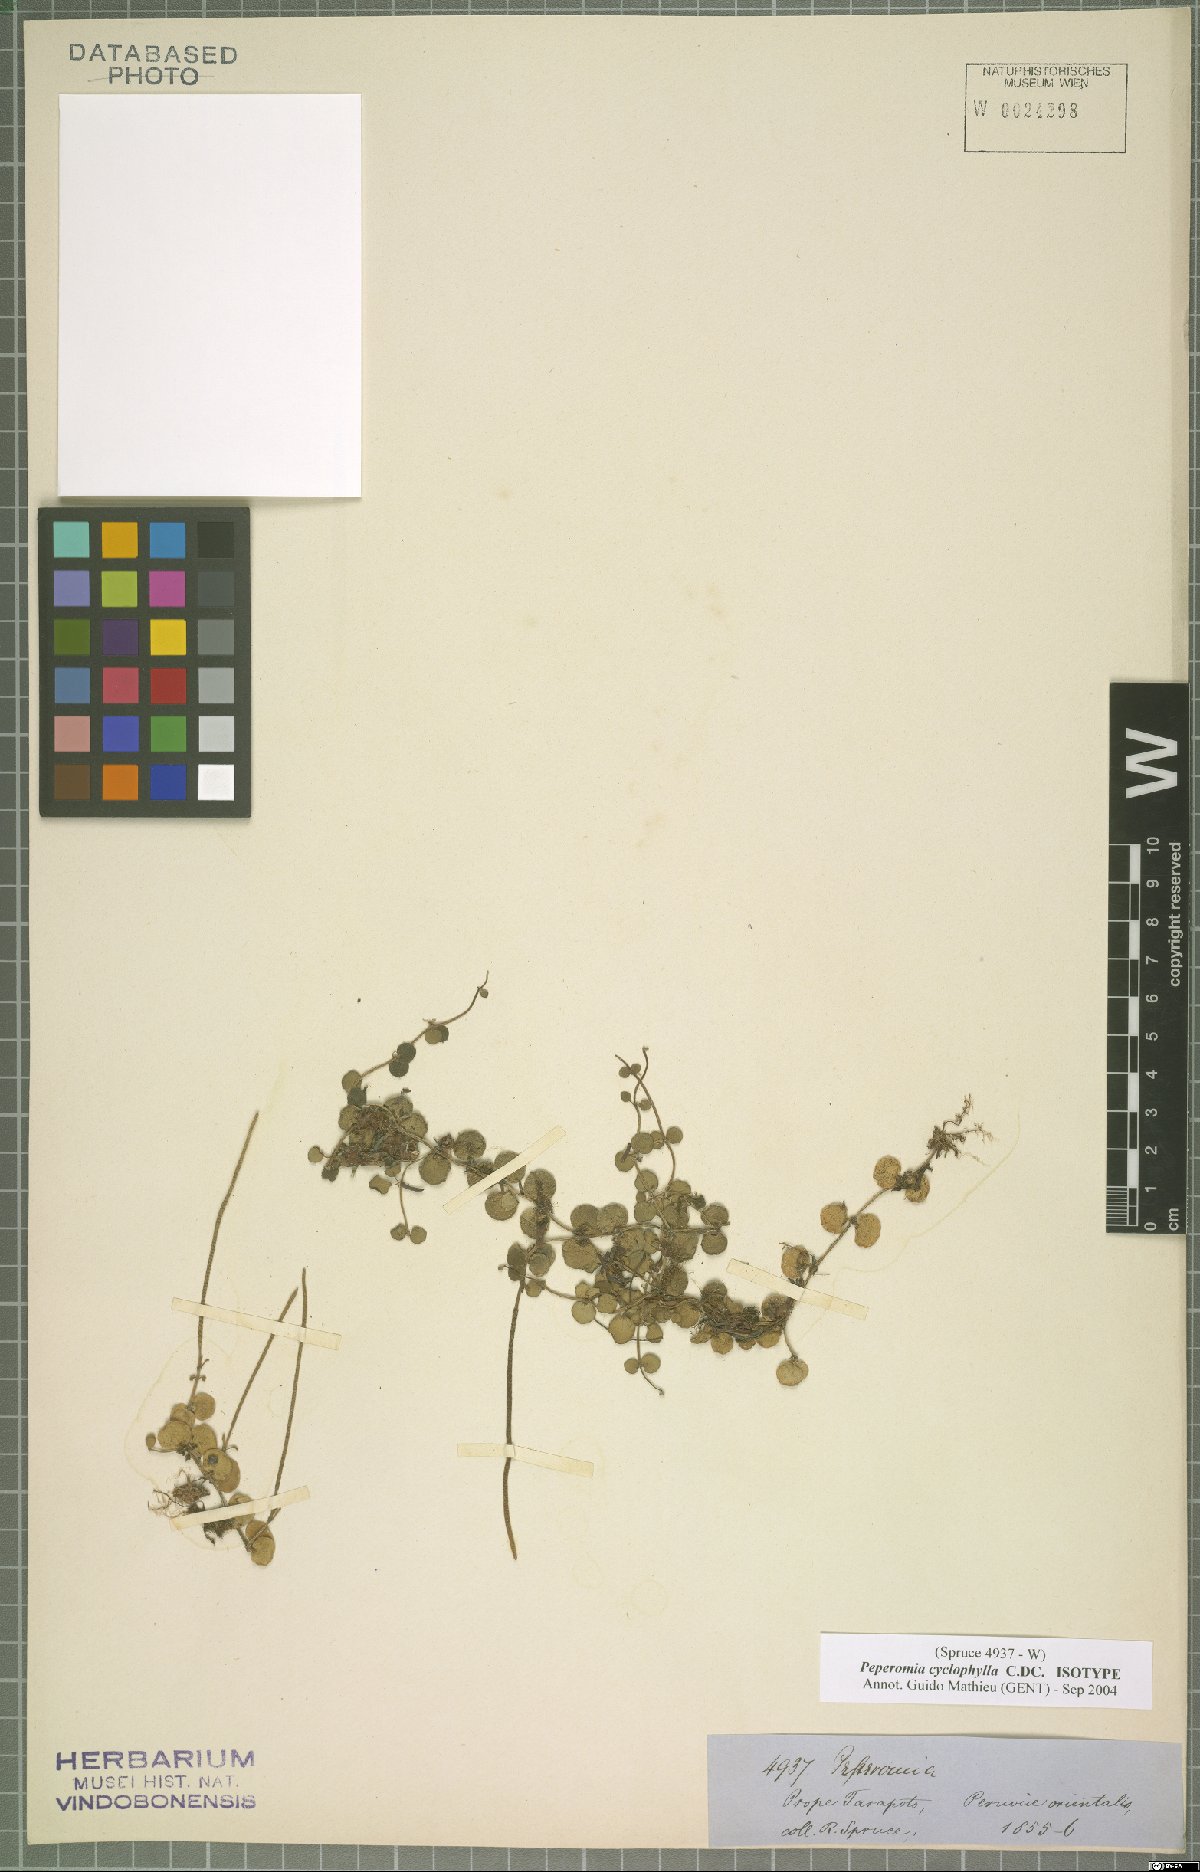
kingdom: Plantae
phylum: Tracheophyta
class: Magnoliopsida
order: Piperales
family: Piperaceae
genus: Peperomia
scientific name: Peperomia cyclophylla
